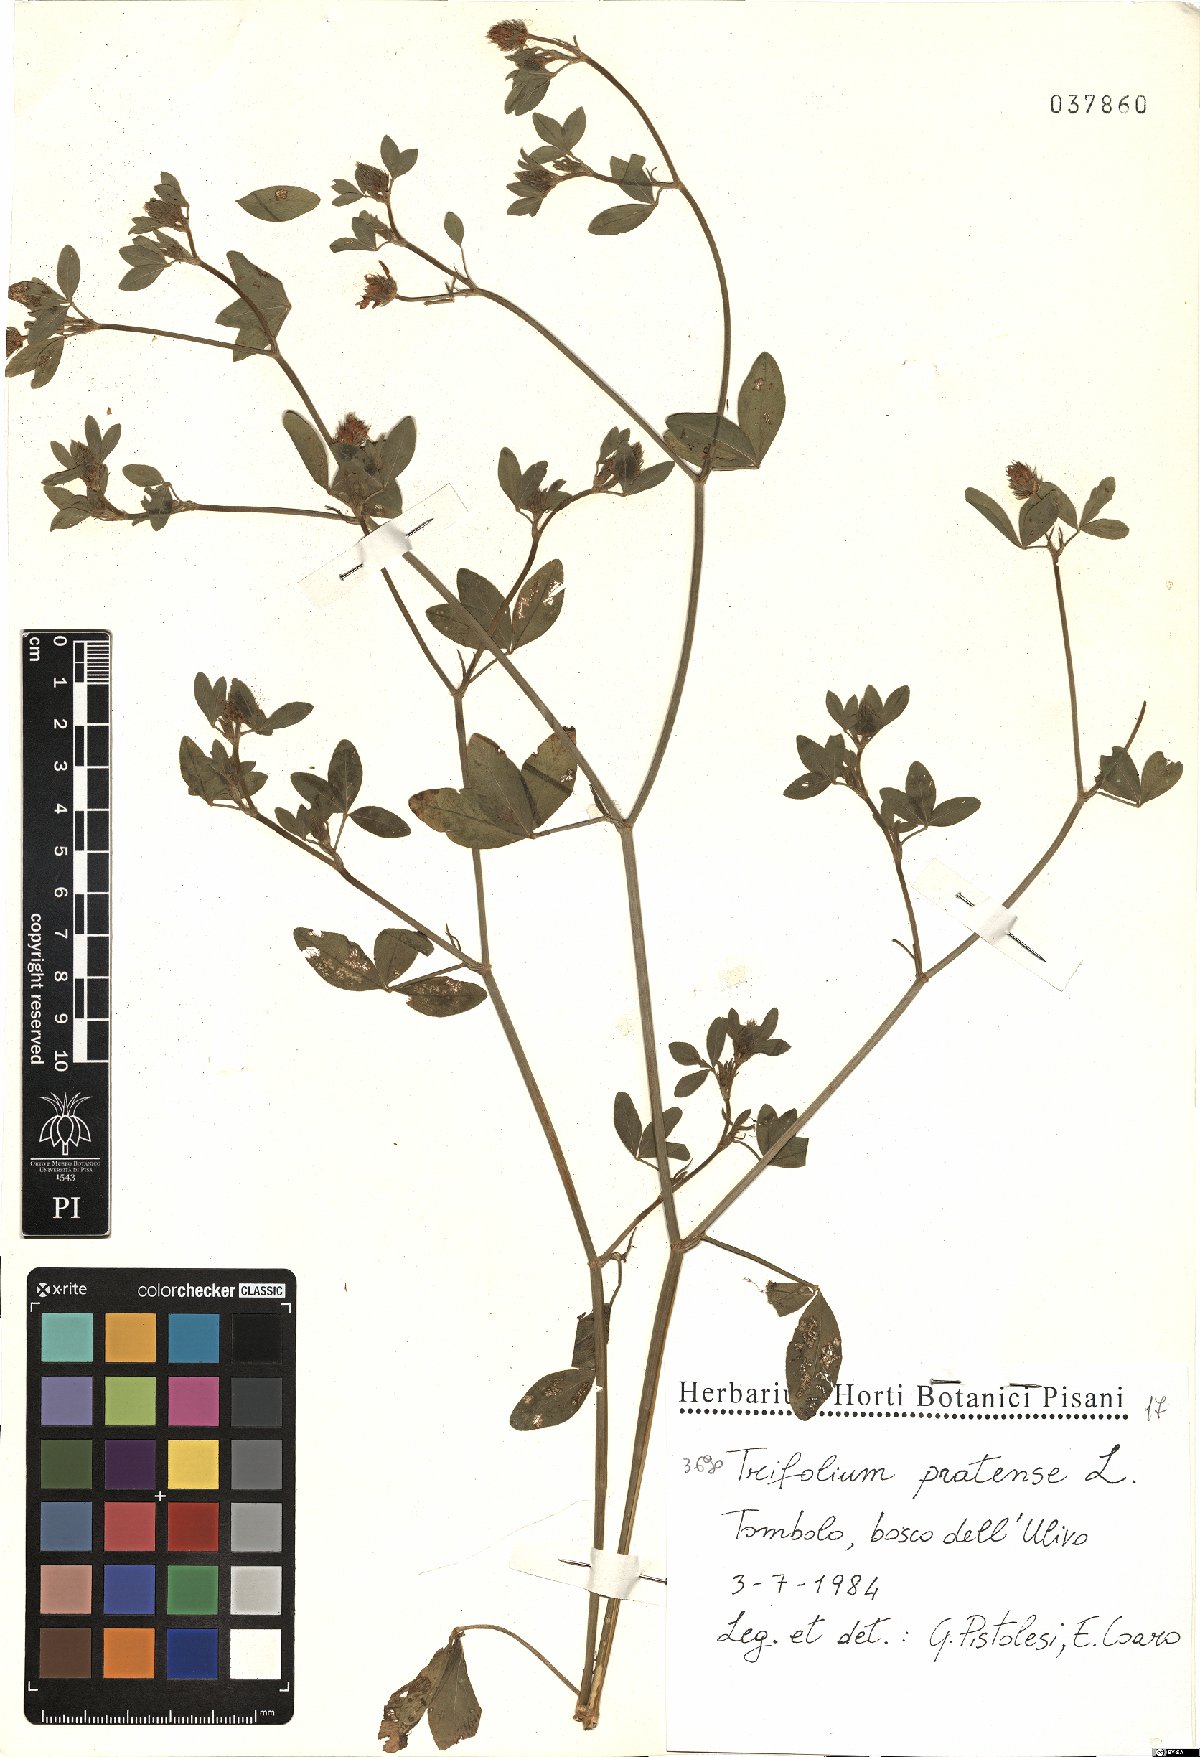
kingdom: Plantae
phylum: Tracheophyta
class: Magnoliopsida
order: Fabales
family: Fabaceae
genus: Trifolium
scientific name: Trifolium pratense
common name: Red clover
